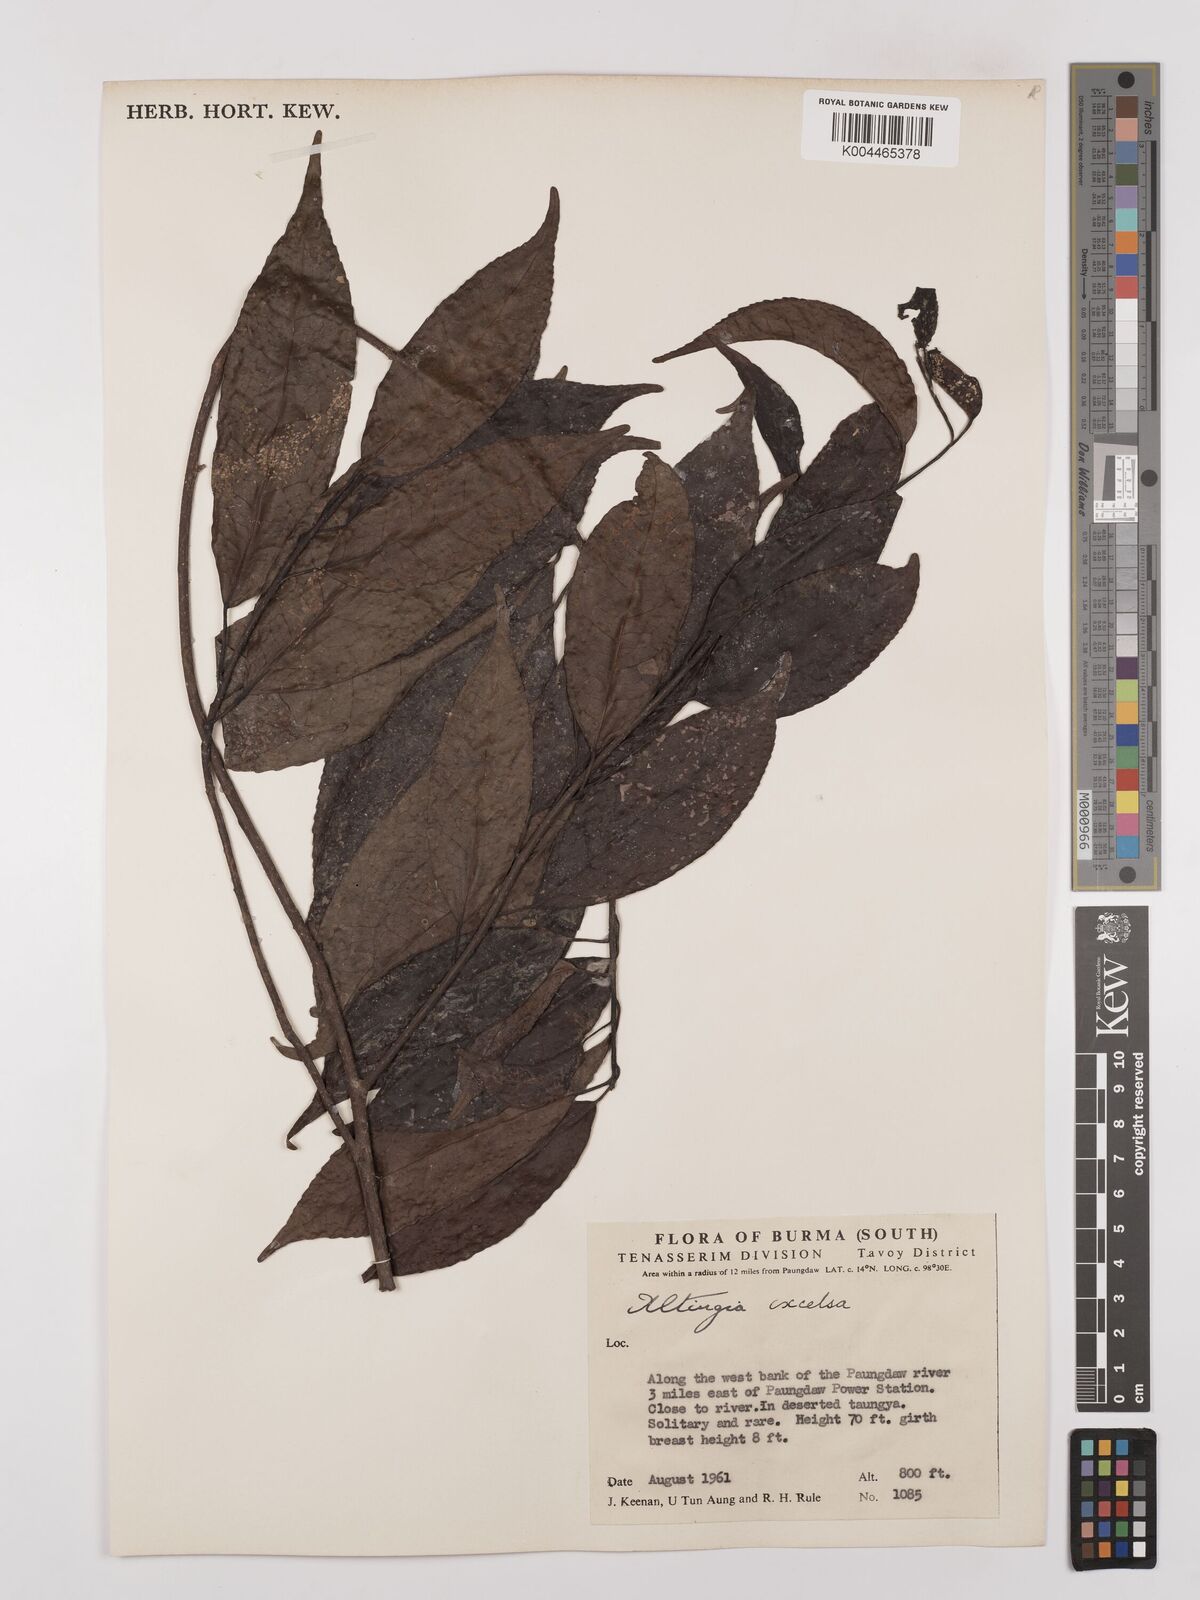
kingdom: Plantae
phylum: Tracheophyta
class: Magnoliopsida
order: Saxifragales
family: Altingiaceae
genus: Liquidambar
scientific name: Liquidambar excelsa
